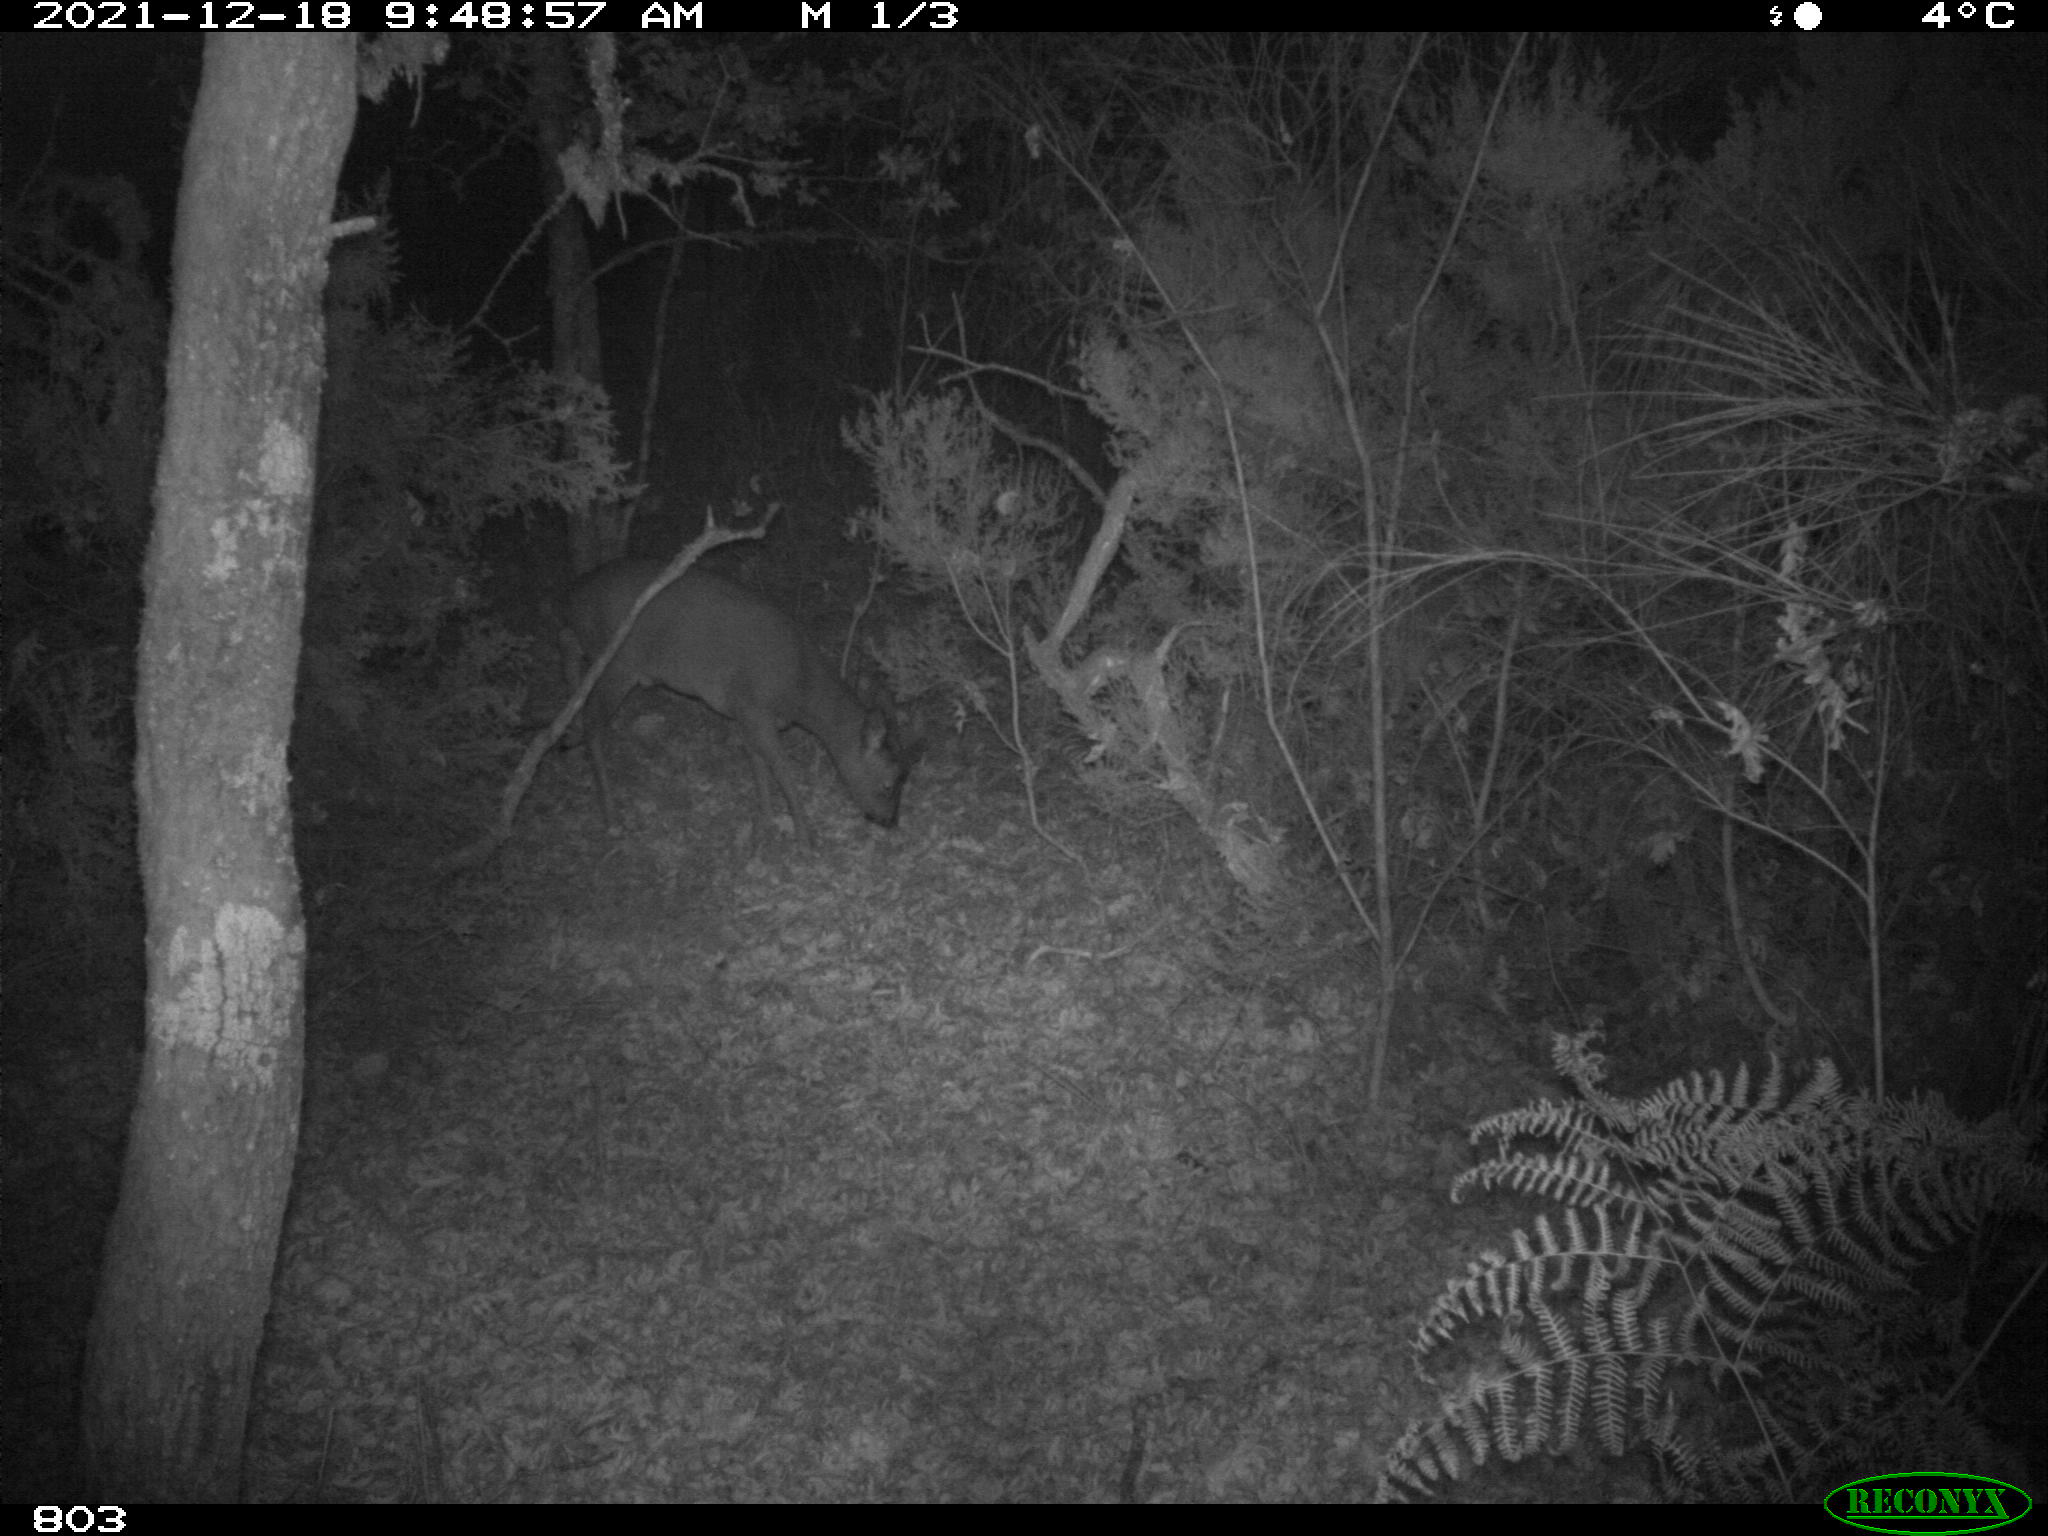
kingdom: Animalia
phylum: Chordata
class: Mammalia
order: Artiodactyla
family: Cervidae
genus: Capreolus
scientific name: Capreolus capreolus
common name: Western roe deer
